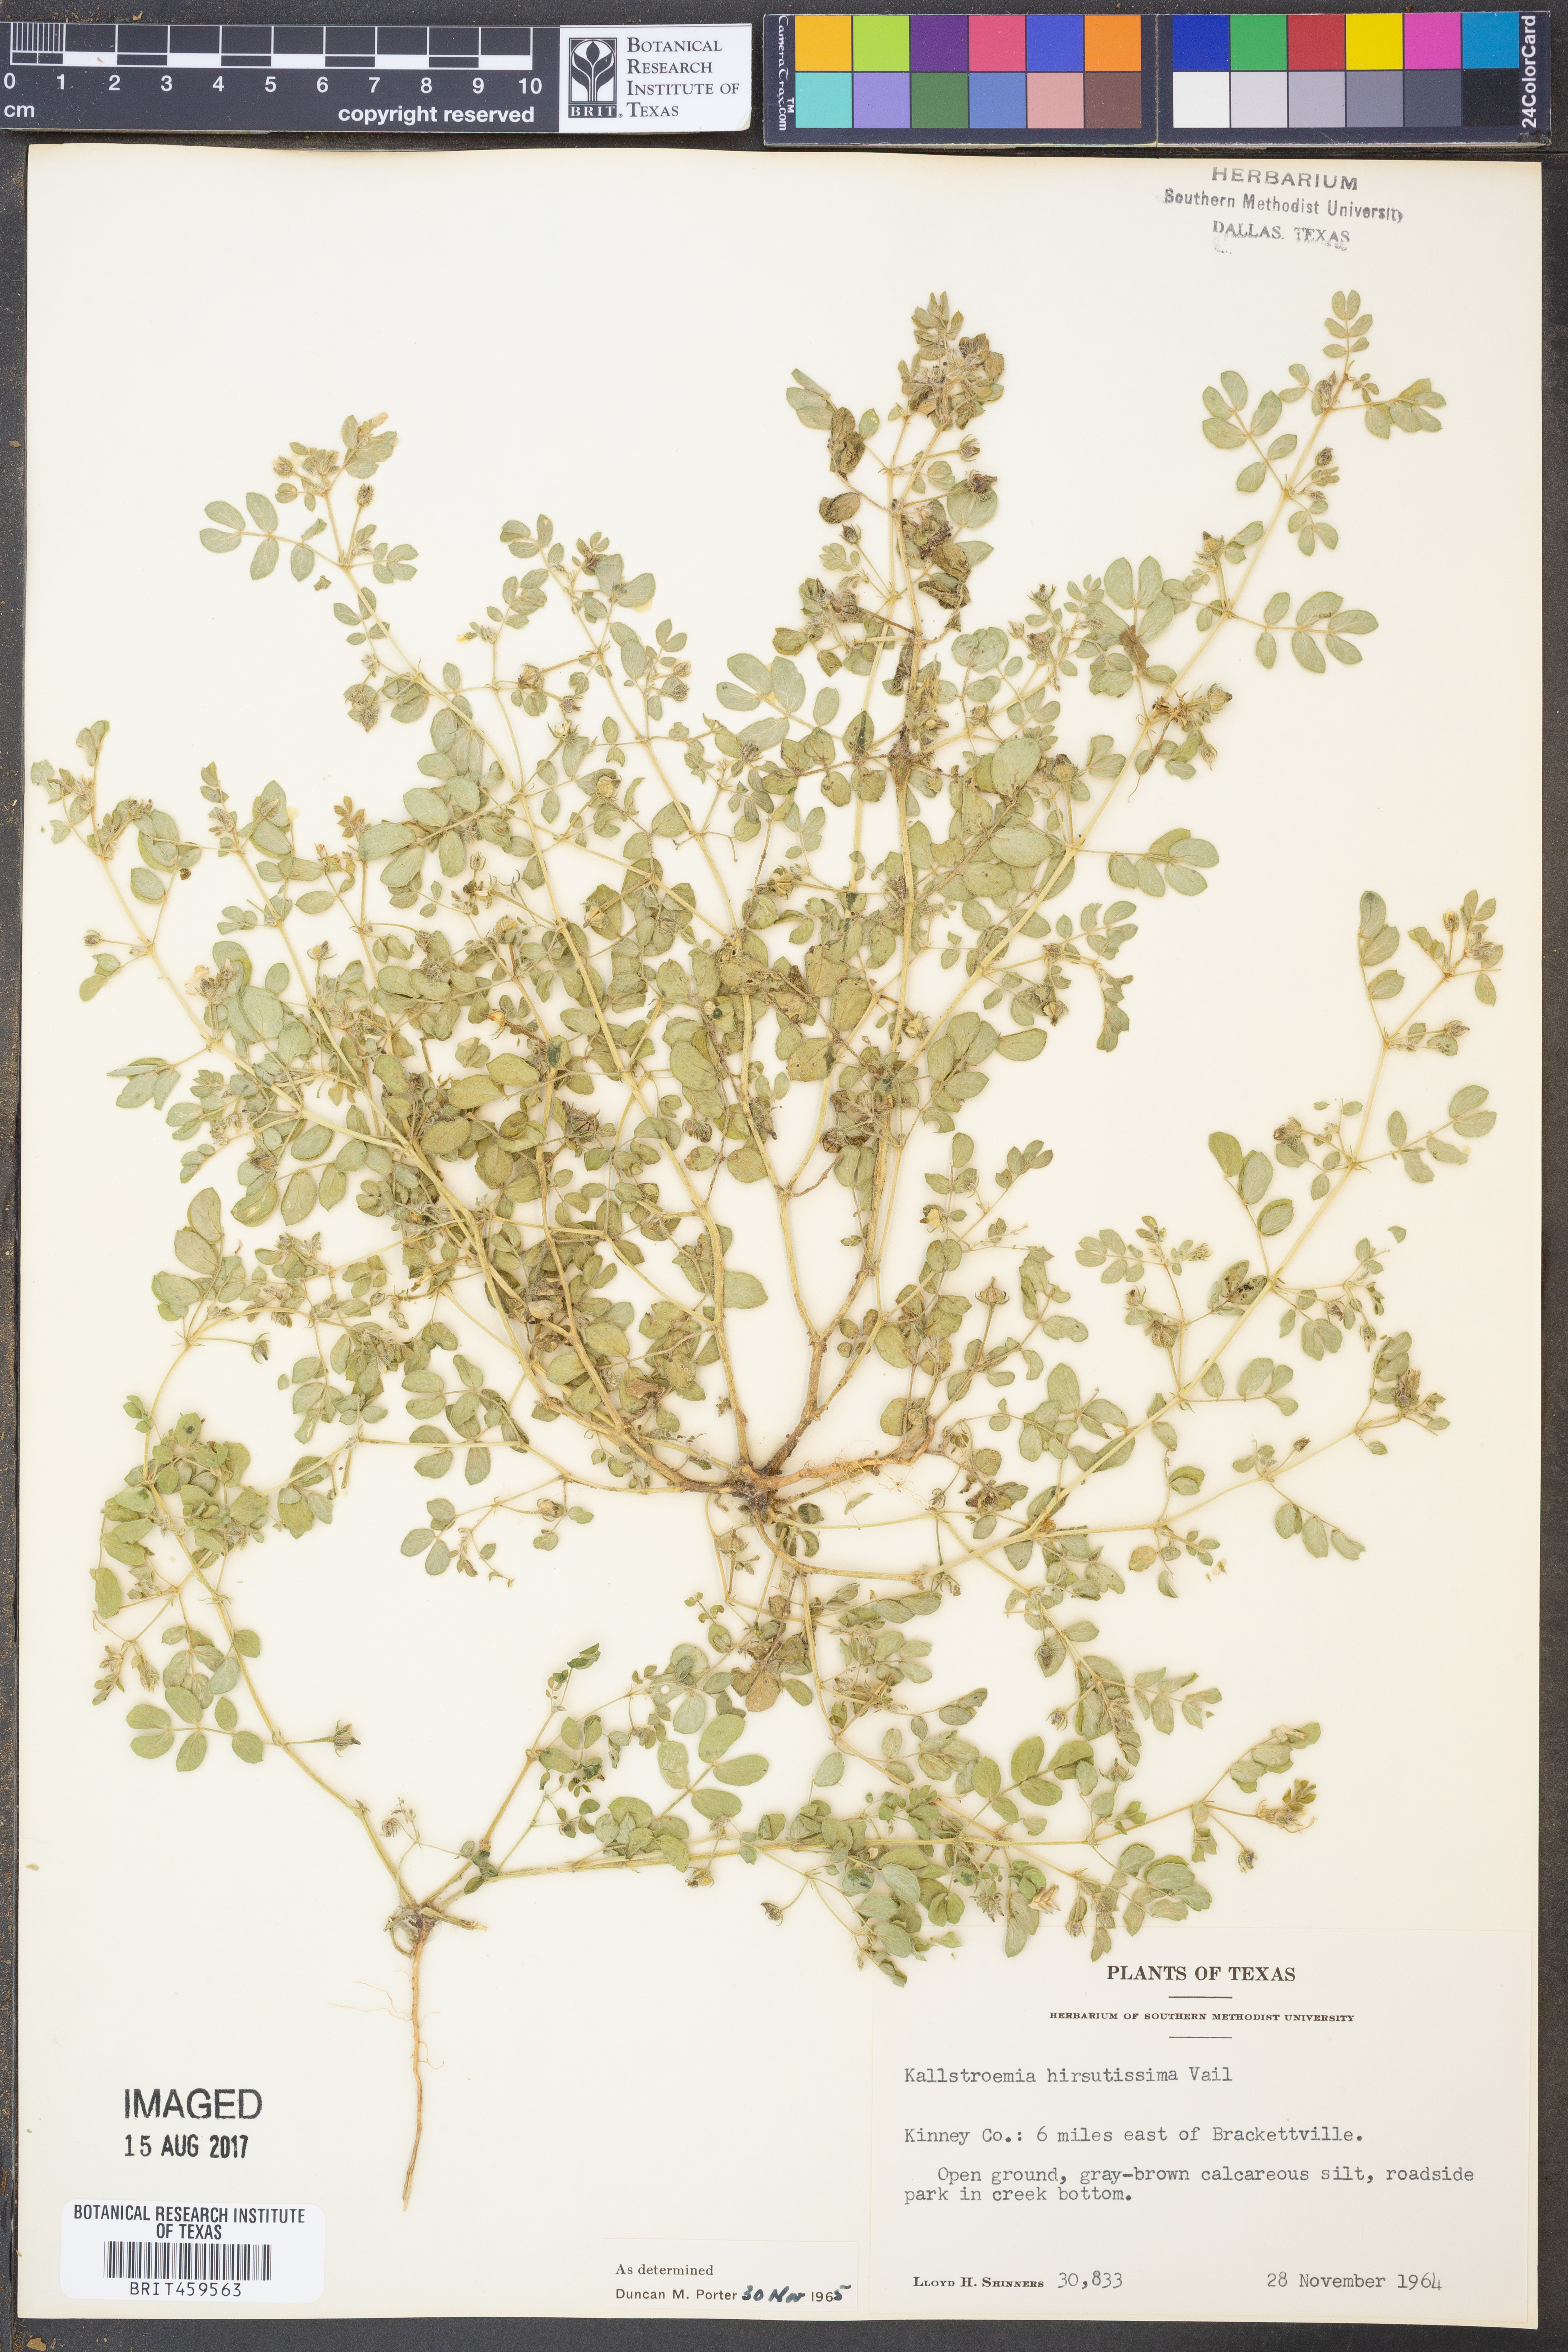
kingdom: Plantae
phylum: Tracheophyta
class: Magnoliopsida
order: Zygophyllales
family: Zygophyllaceae
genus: Kallstroemia
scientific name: Kallstroemia hirsutissima
